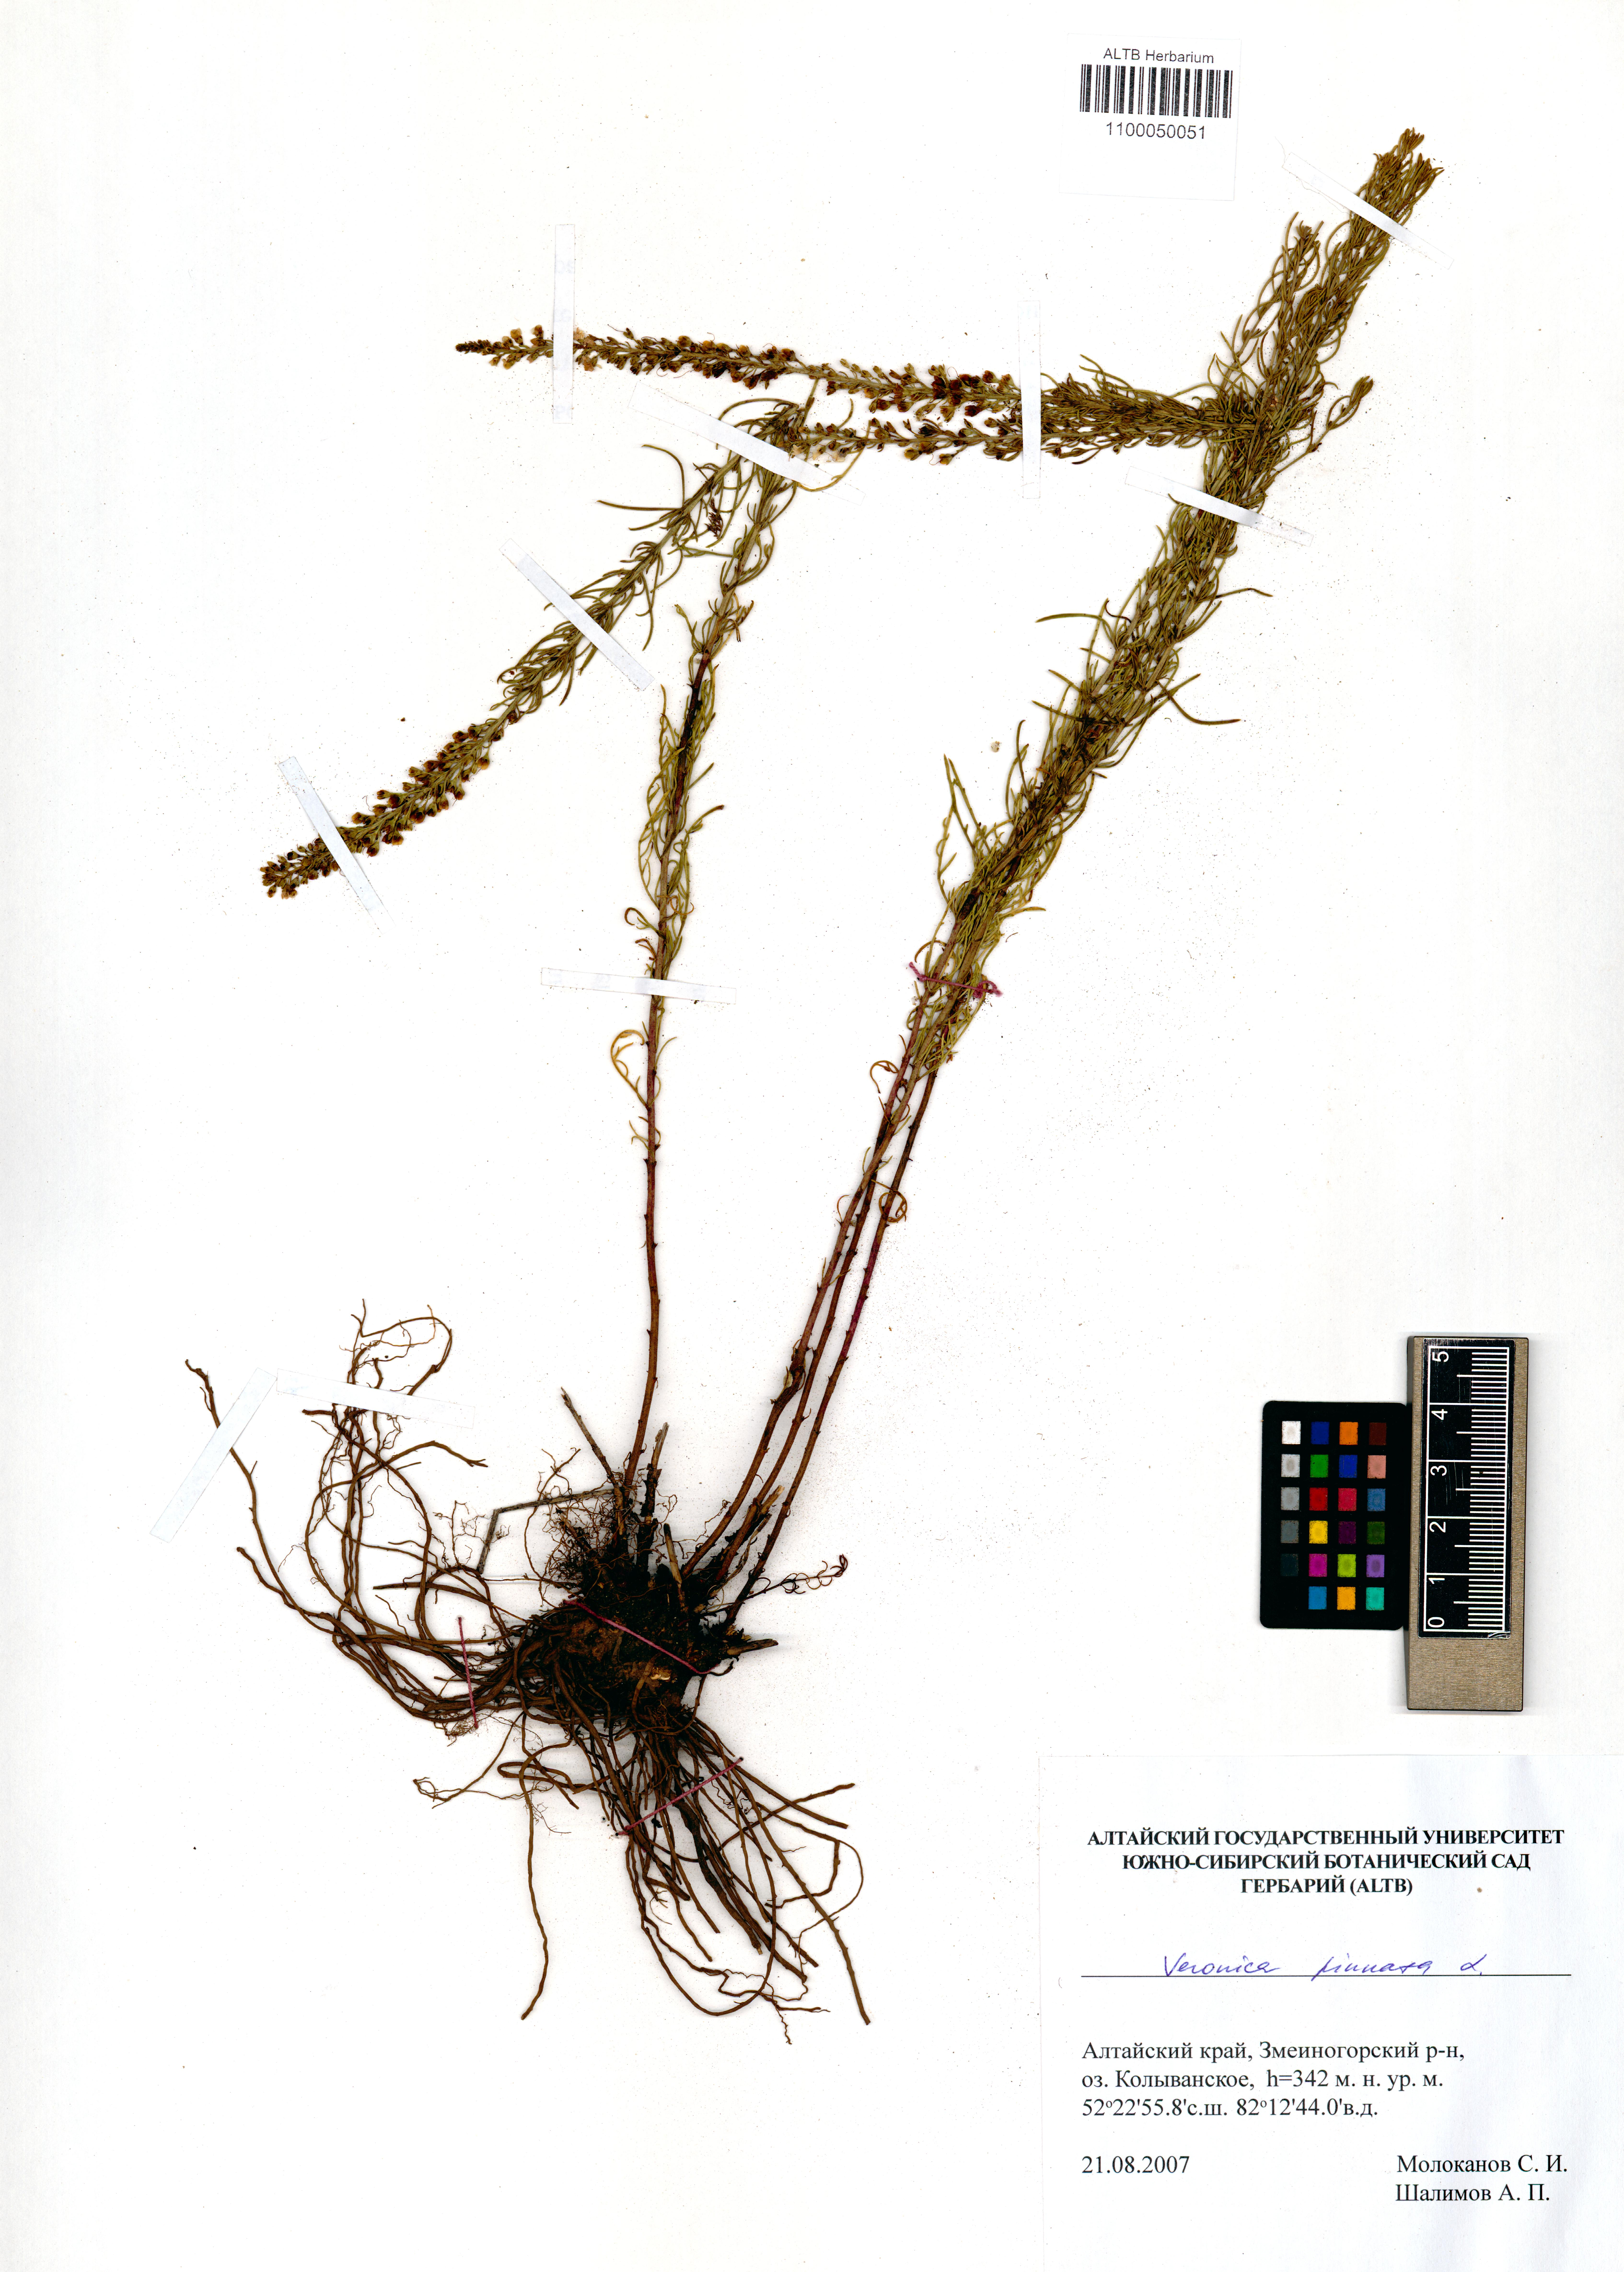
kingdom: Plantae
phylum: Tracheophyta
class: Magnoliopsida
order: Lamiales
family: Plantaginaceae
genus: Veronica
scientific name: Veronica pinnata
